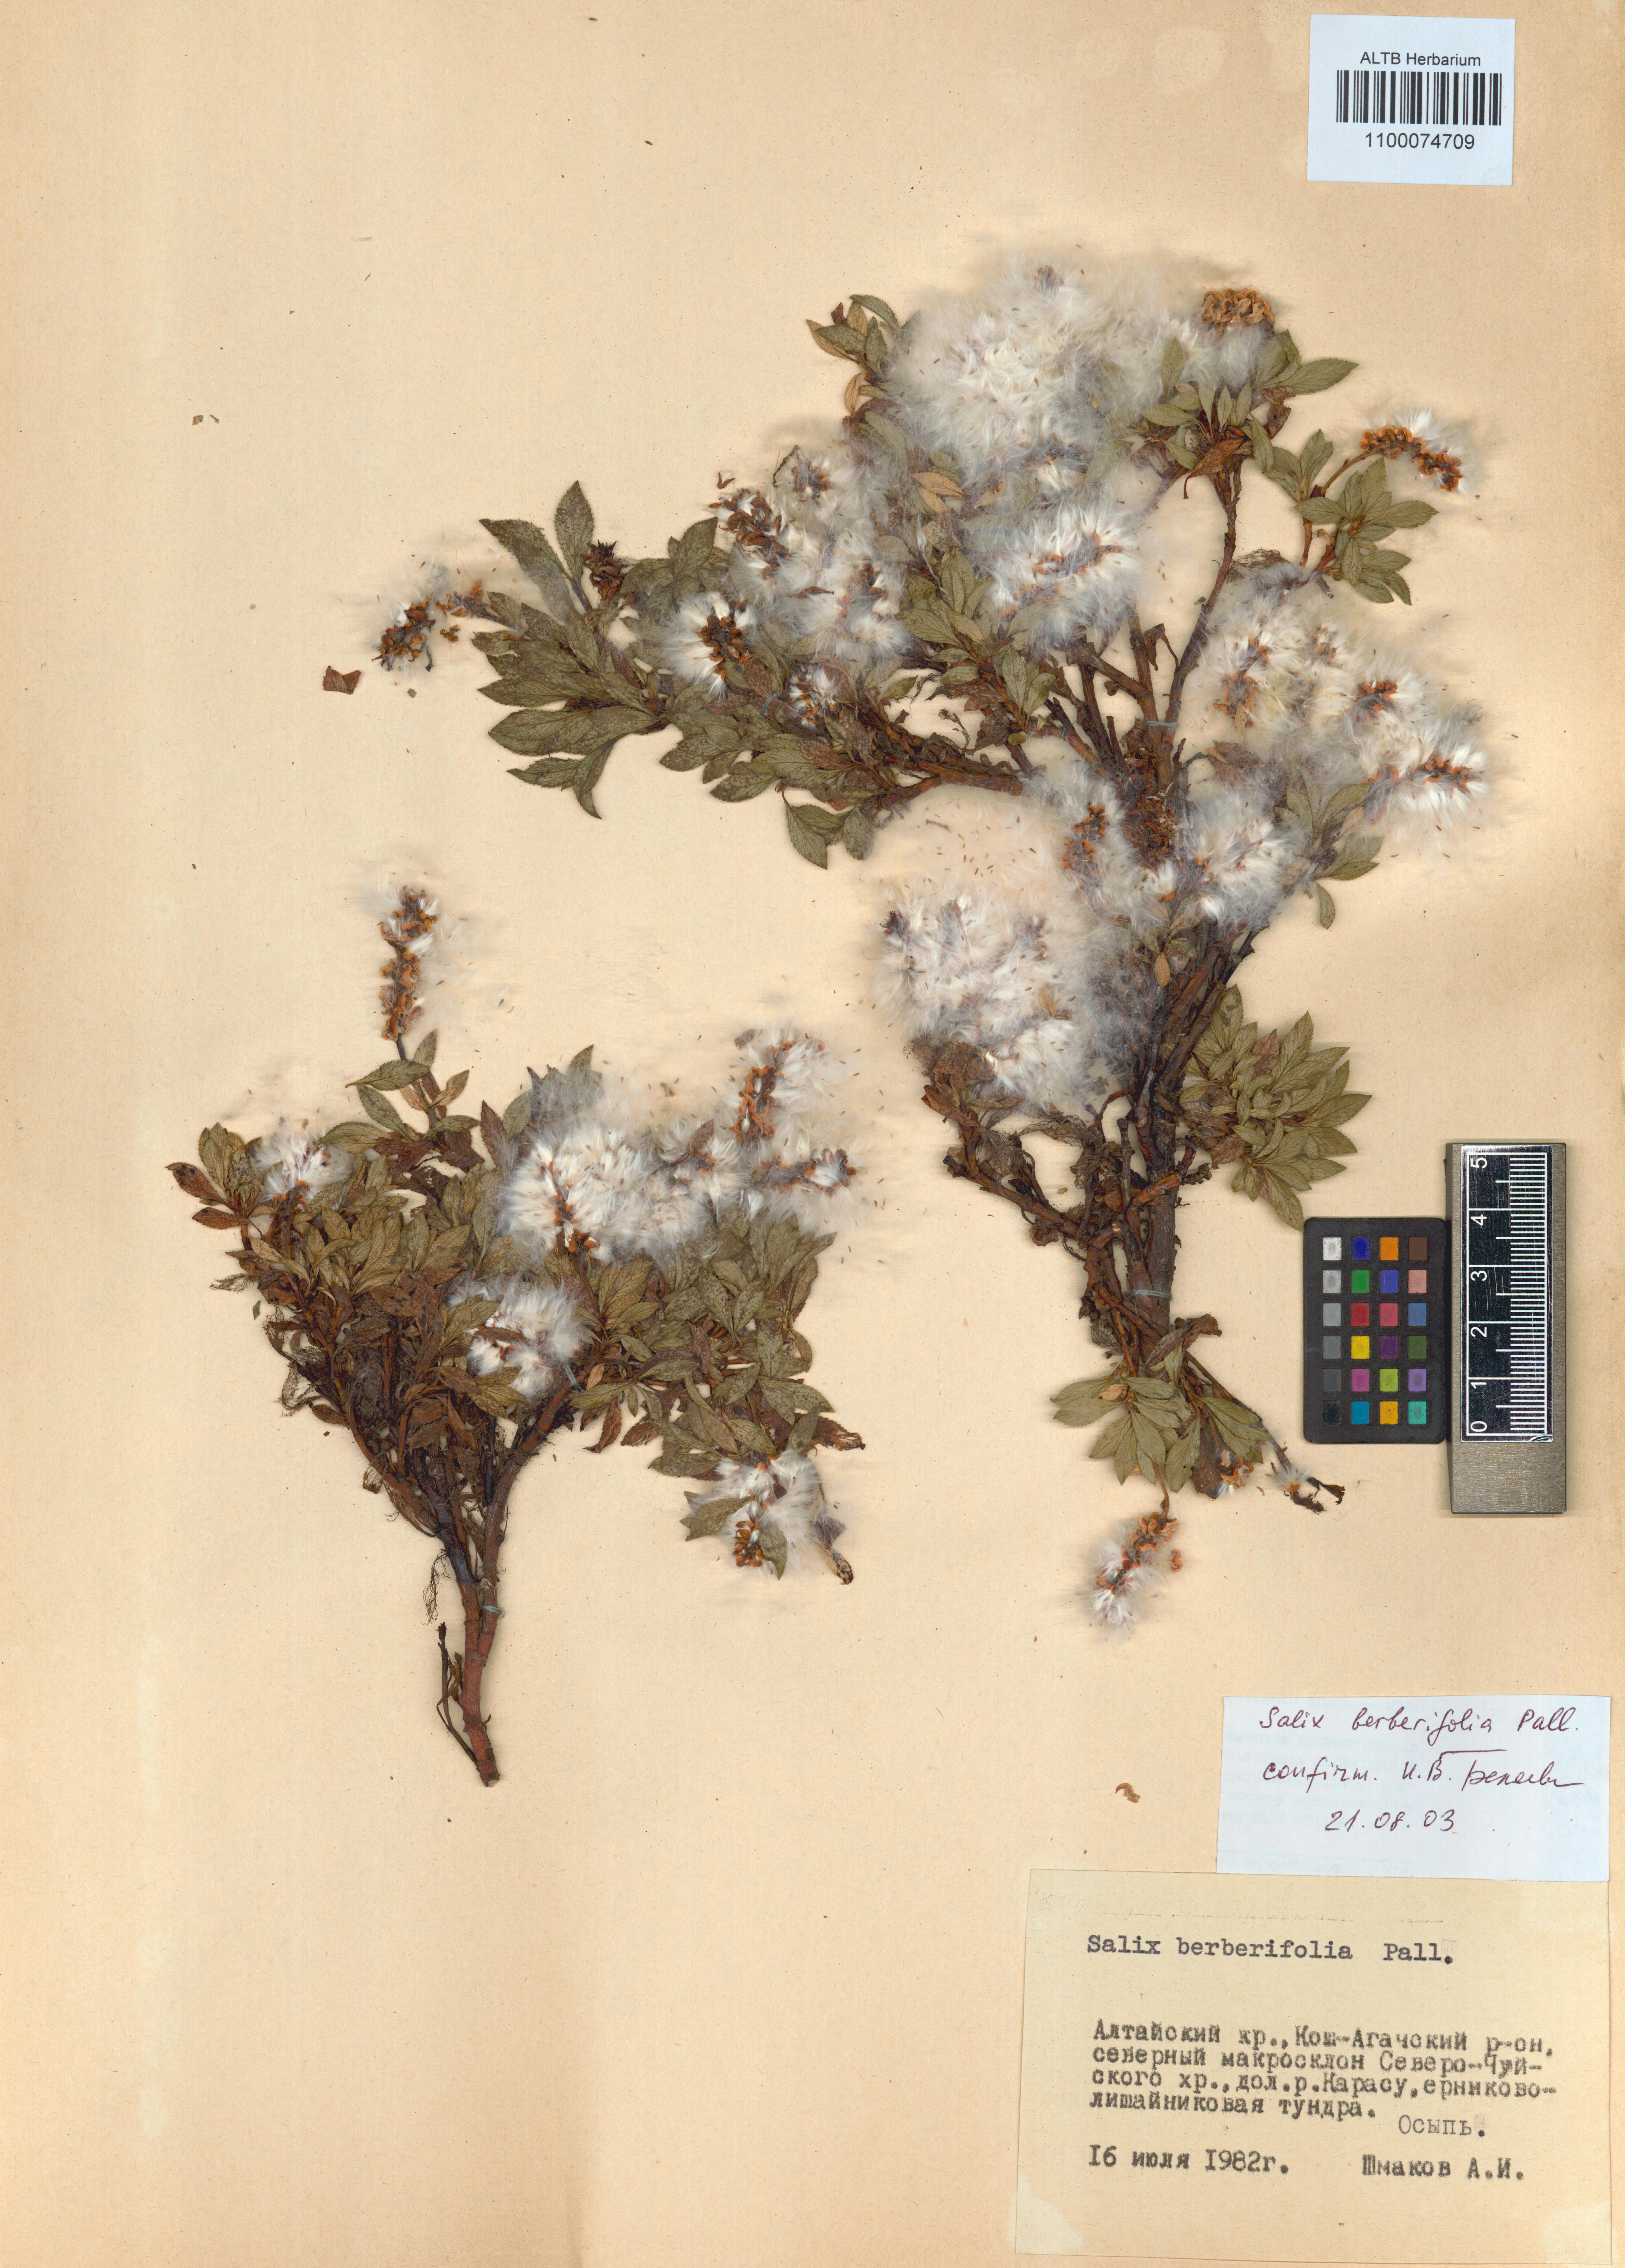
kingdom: Plantae
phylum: Tracheophyta
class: Magnoliopsida
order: Malpighiales
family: Salicaceae
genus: Salix
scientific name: Salix berberifolia
